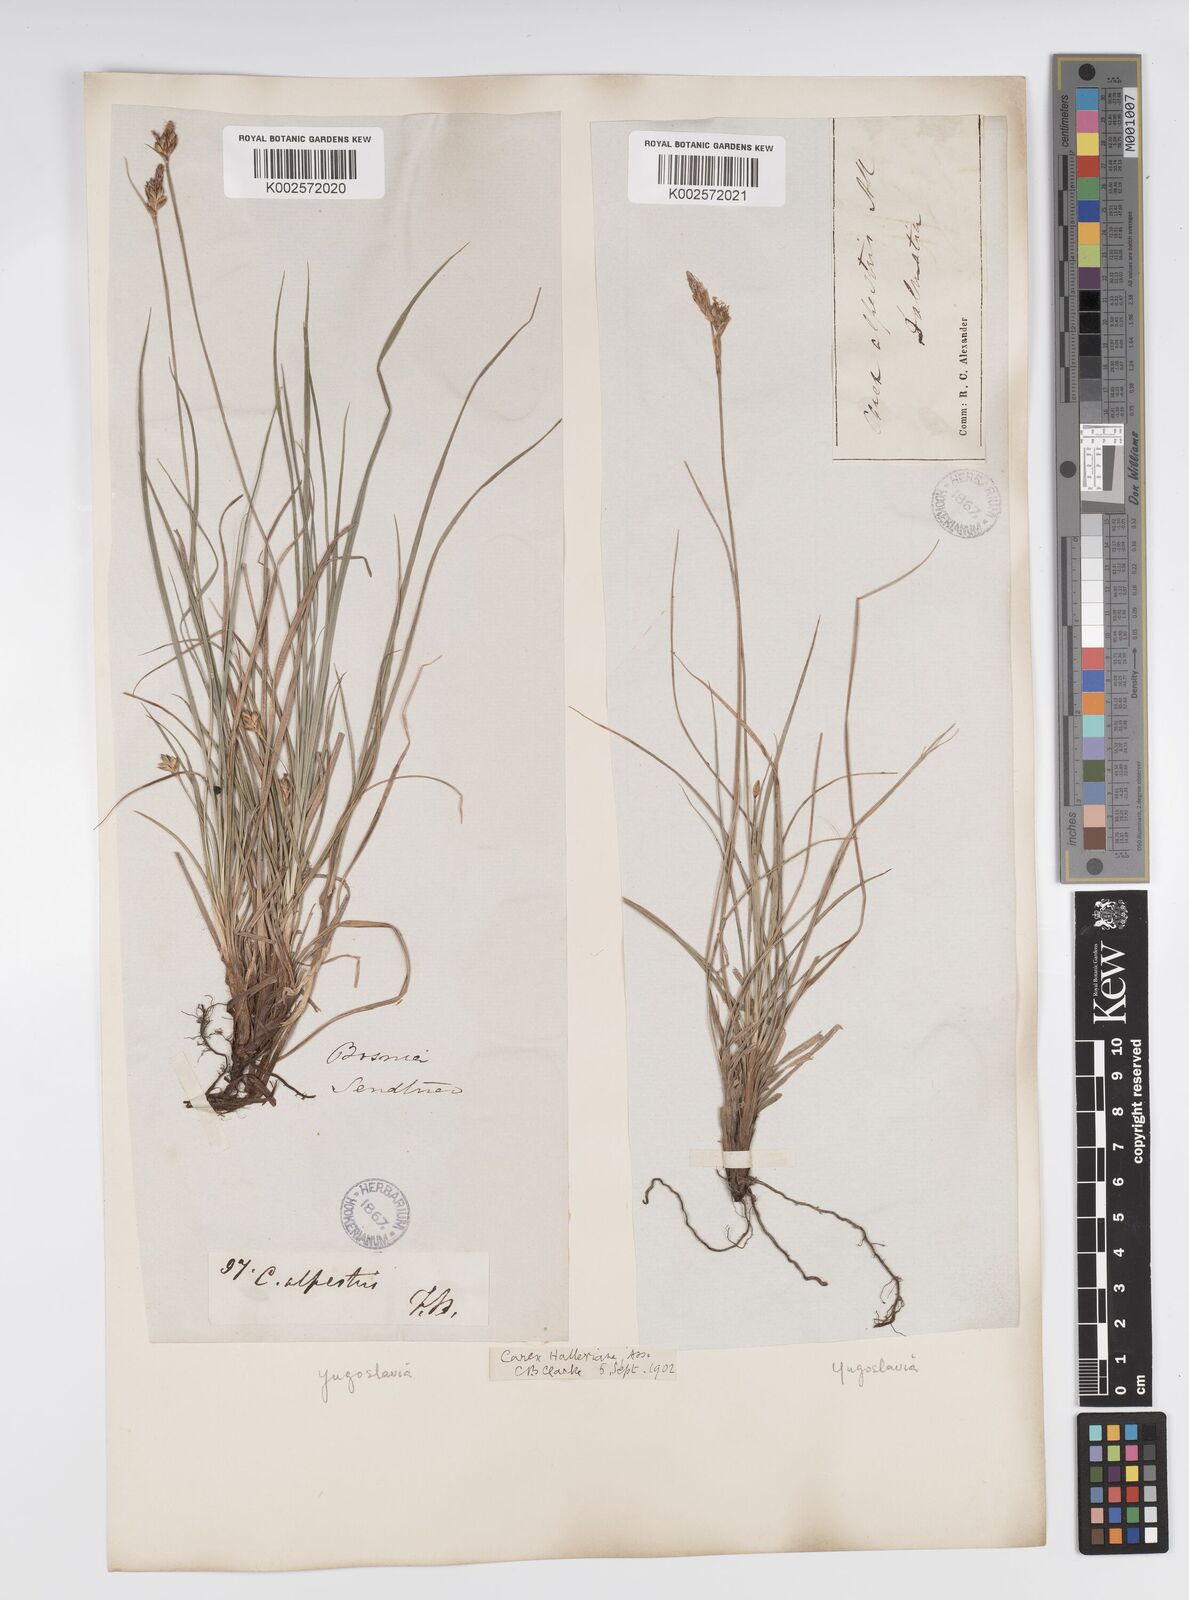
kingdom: Plantae
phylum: Tracheophyta
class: Liliopsida
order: Poales
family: Cyperaceae
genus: Carex
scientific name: Carex halleriana
